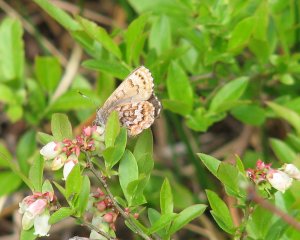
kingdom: Animalia
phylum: Arthropoda
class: Insecta
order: Lepidoptera
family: Lycaenidae
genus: Incisalia
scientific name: Incisalia niphon
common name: Eastern Pine Elfin
